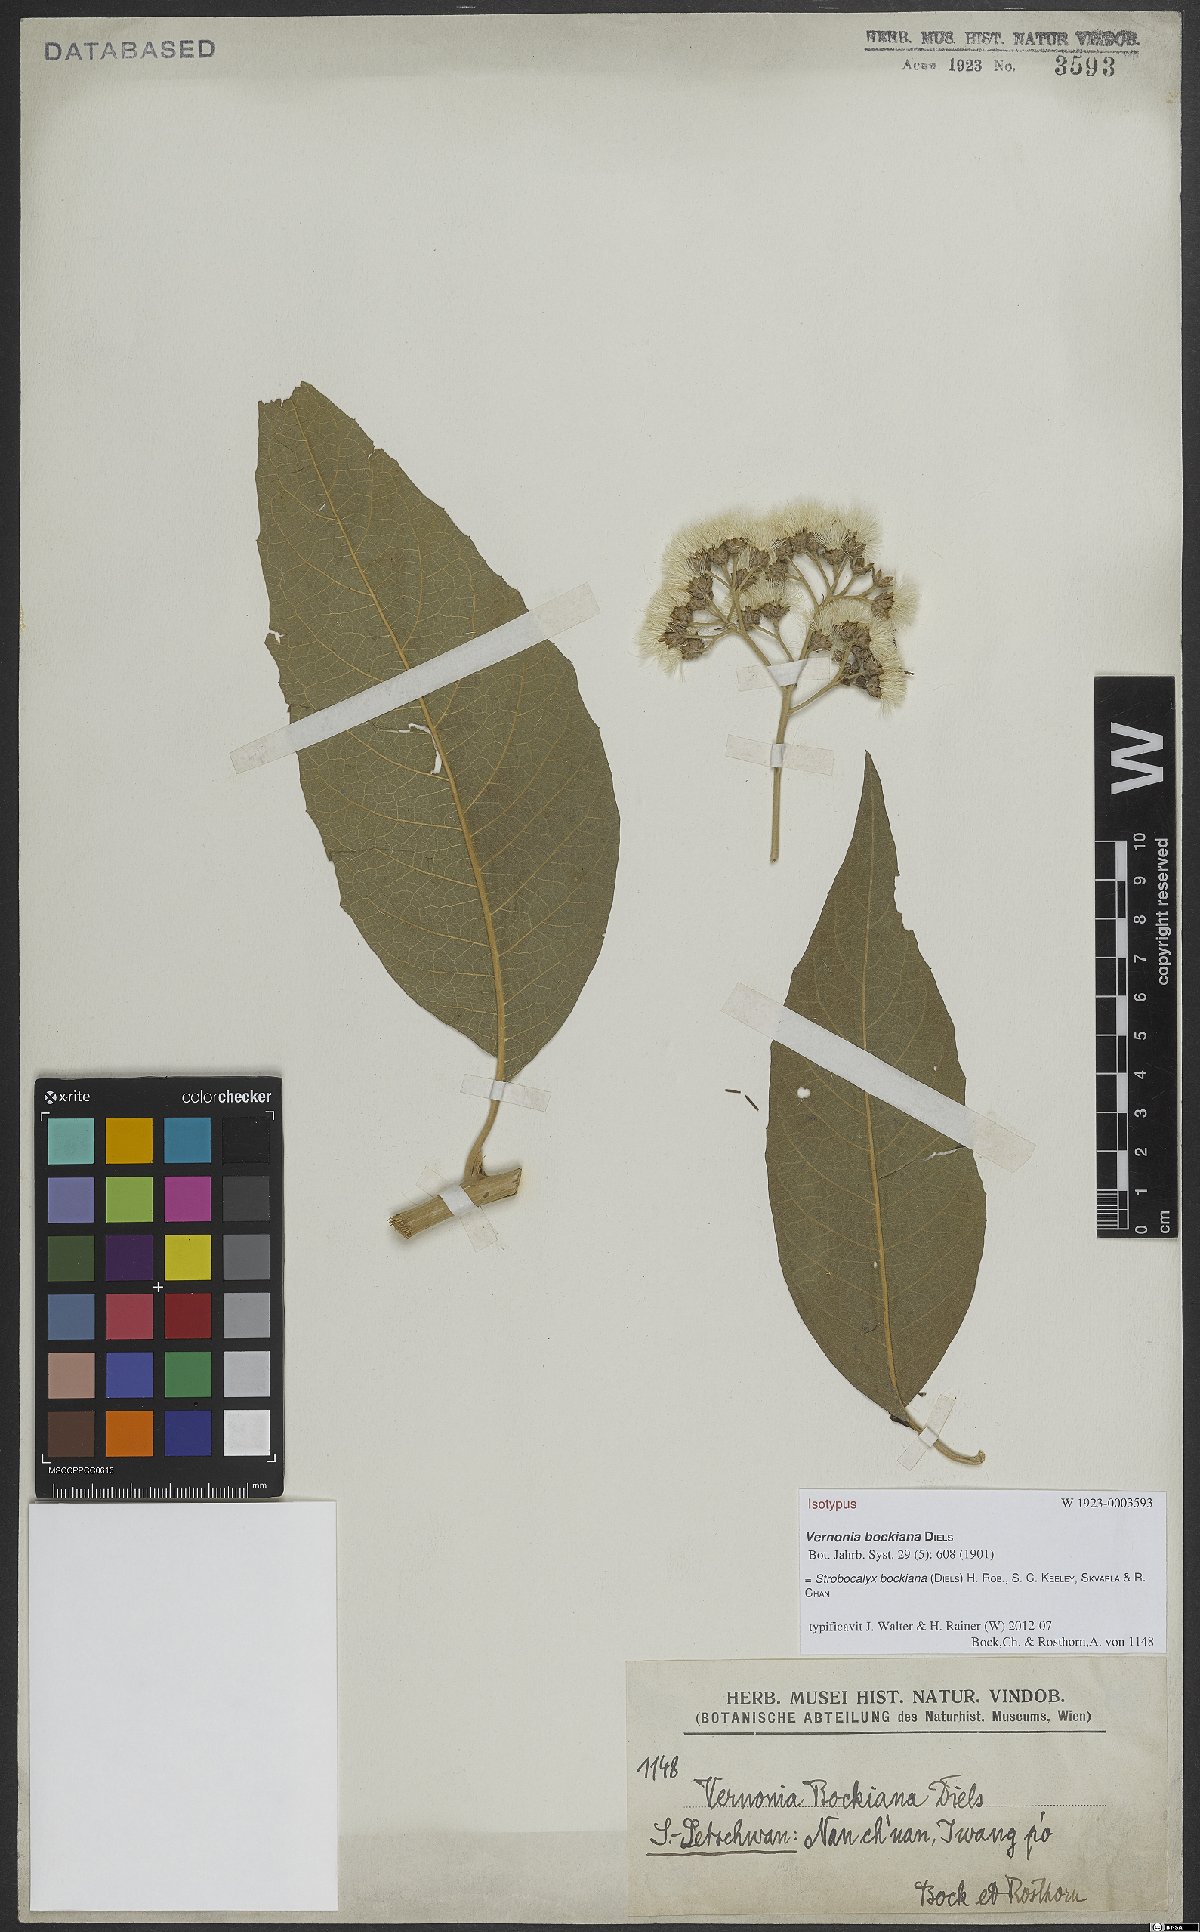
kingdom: Plantae
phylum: Tracheophyta
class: Magnoliopsida
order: Asterales
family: Asteraceae
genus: Strobocalyx
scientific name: Strobocalyx bockiana
